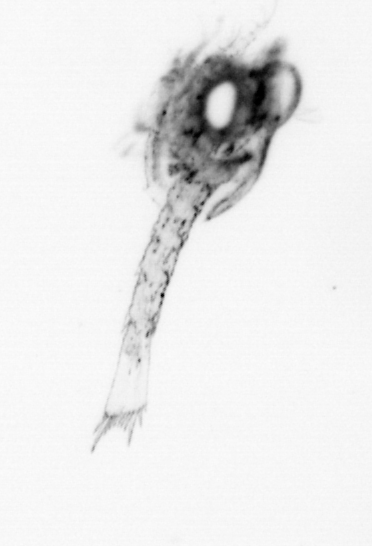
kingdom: Animalia
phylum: Arthropoda
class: Malacostraca
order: Decapoda
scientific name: Decapoda
